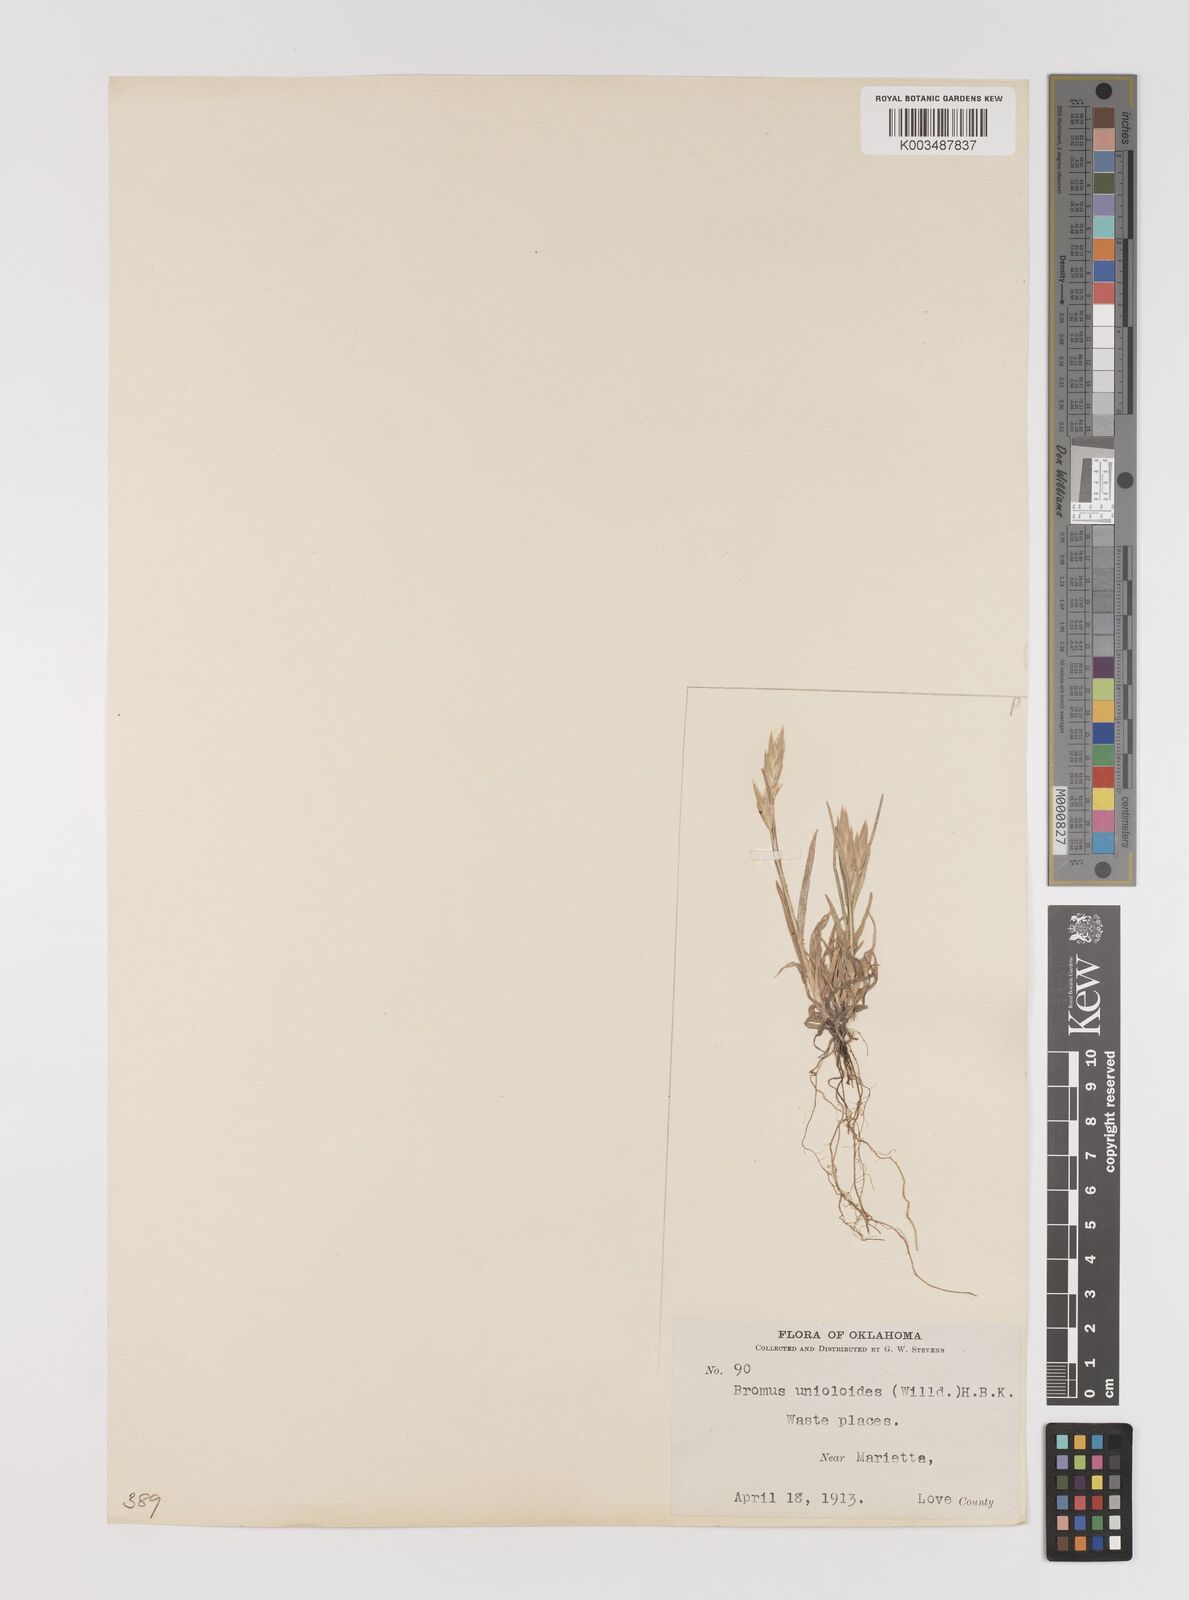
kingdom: Plantae
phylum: Tracheophyta
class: Liliopsida
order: Poales
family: Poaceae
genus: Bromus
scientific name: Bromus catharticus
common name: Rescuegrass
